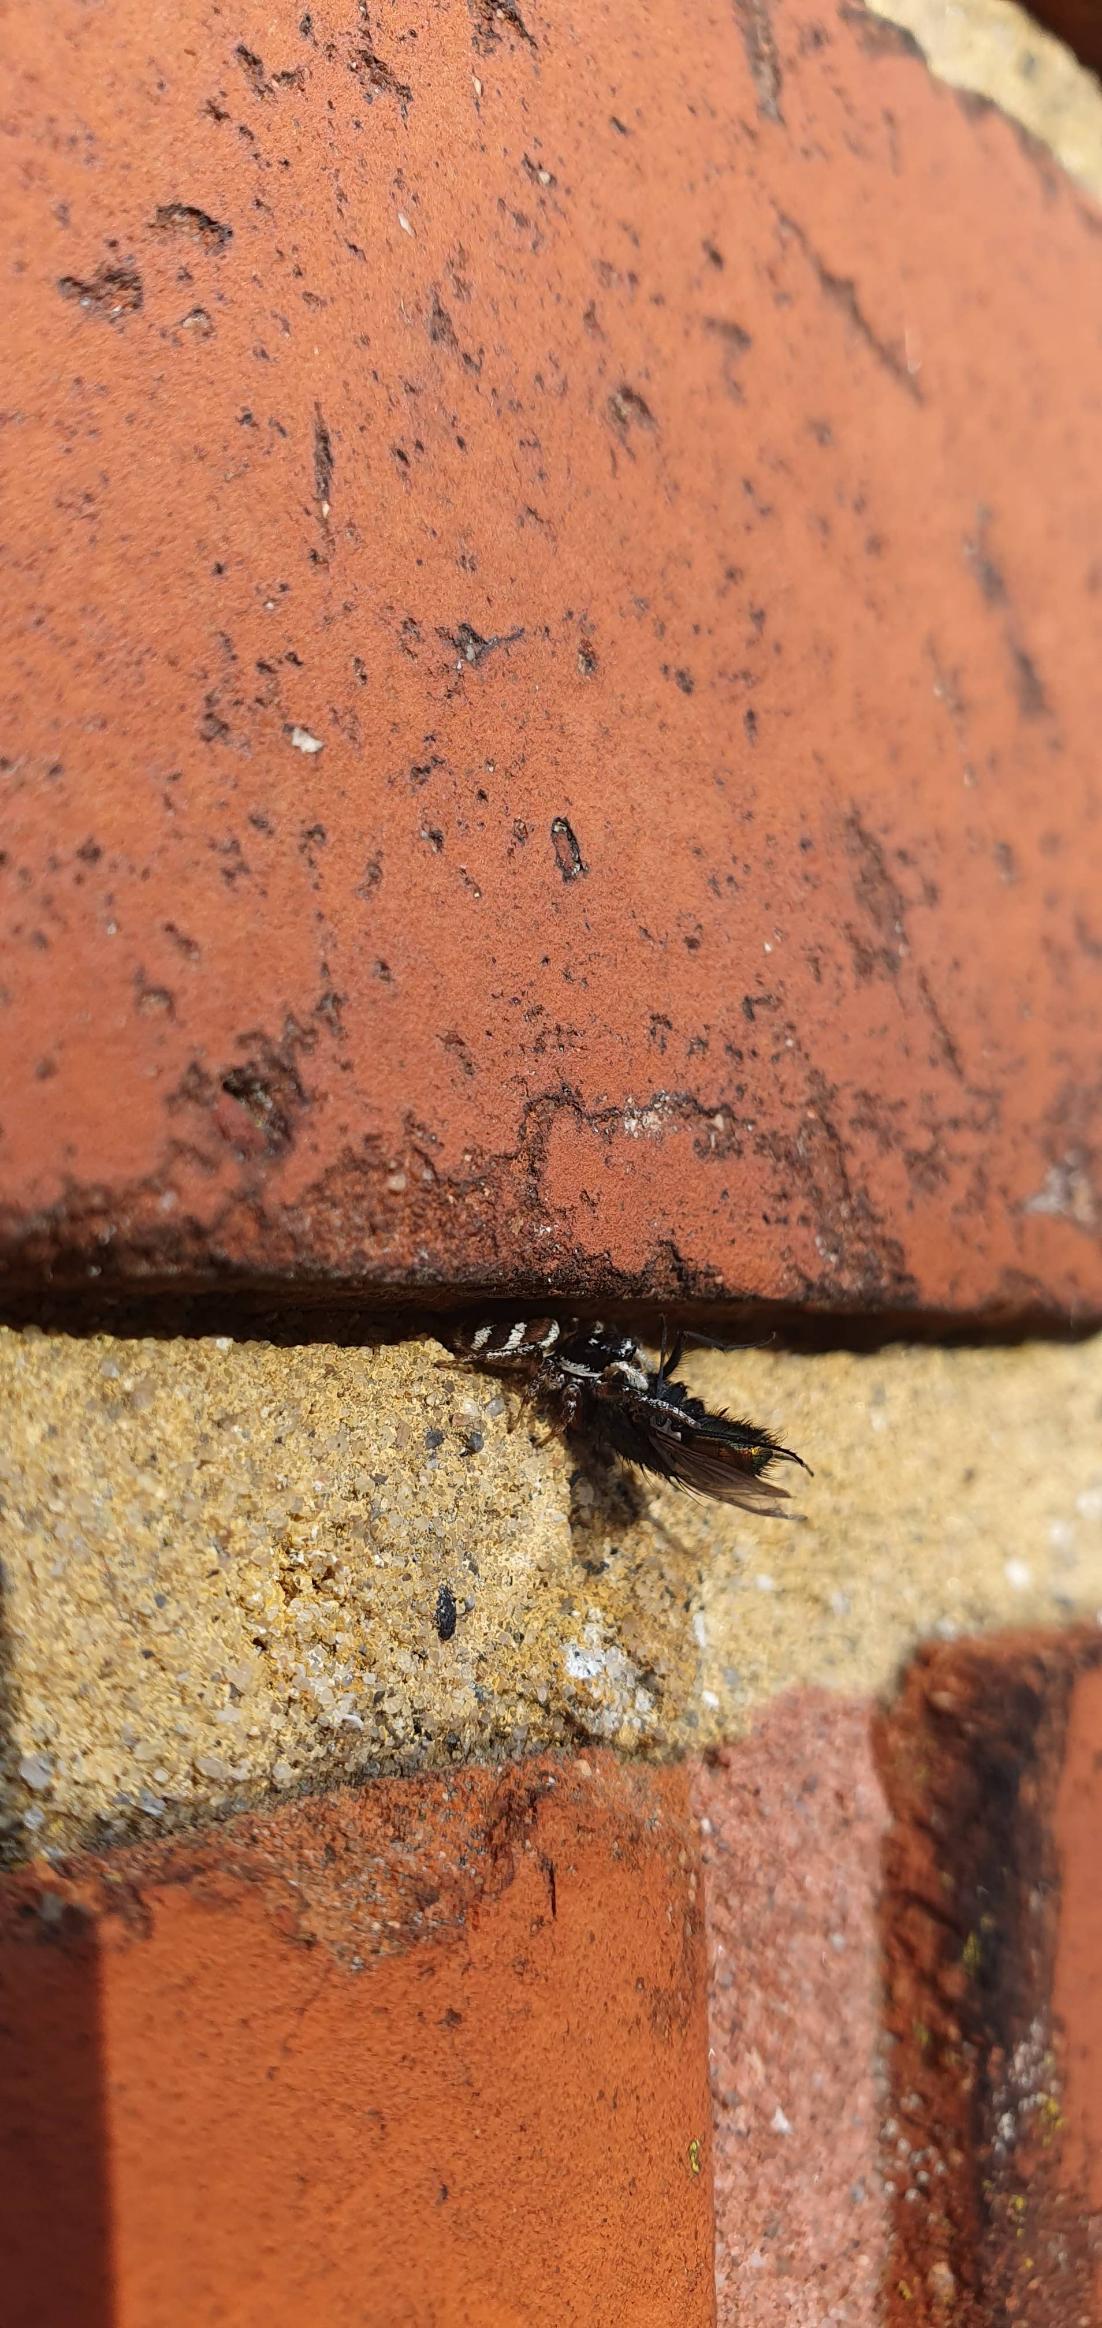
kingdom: Animalia
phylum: Arthropoda
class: Arachnida
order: Araneae
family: Salticidae
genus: Salticus
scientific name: Salticus scenicus
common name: Almindelig zebraedderkop
